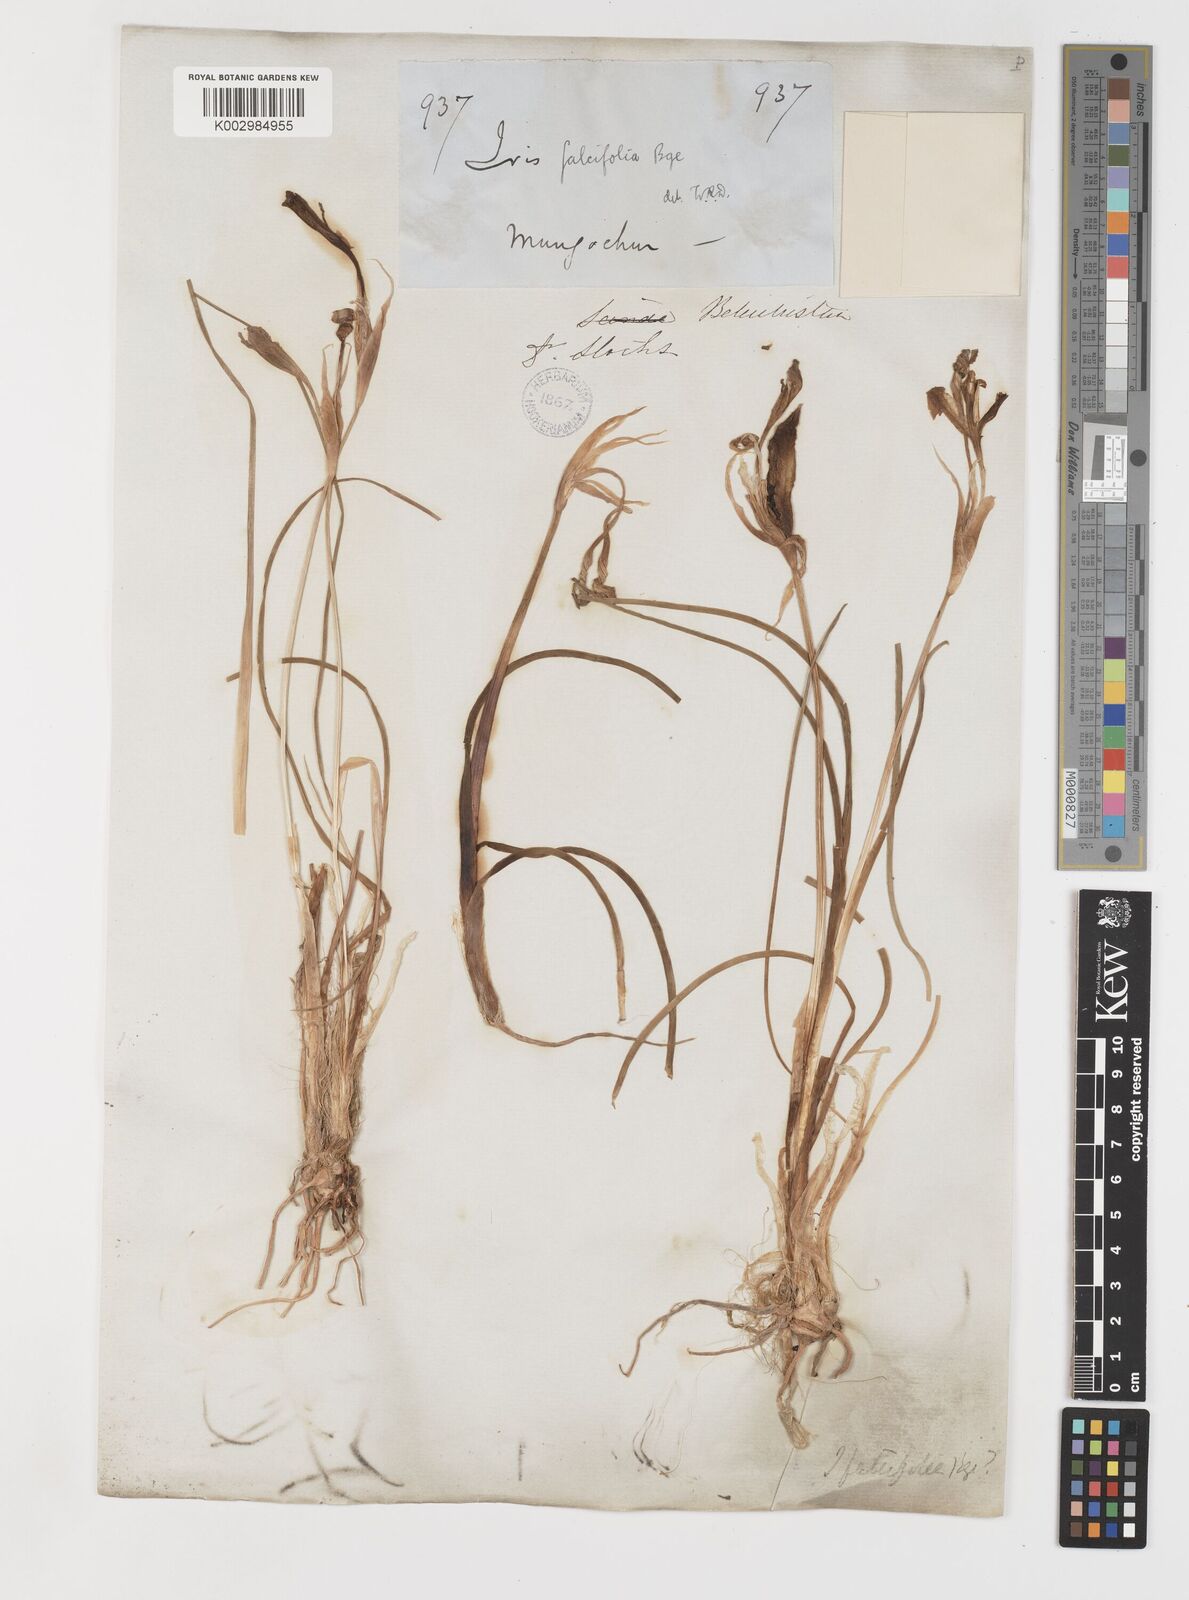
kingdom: Plantae
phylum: Tracheophyta
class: Liliopsida
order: Asparagales
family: Iridaceae
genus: Iris
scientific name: Iris longiscapa
